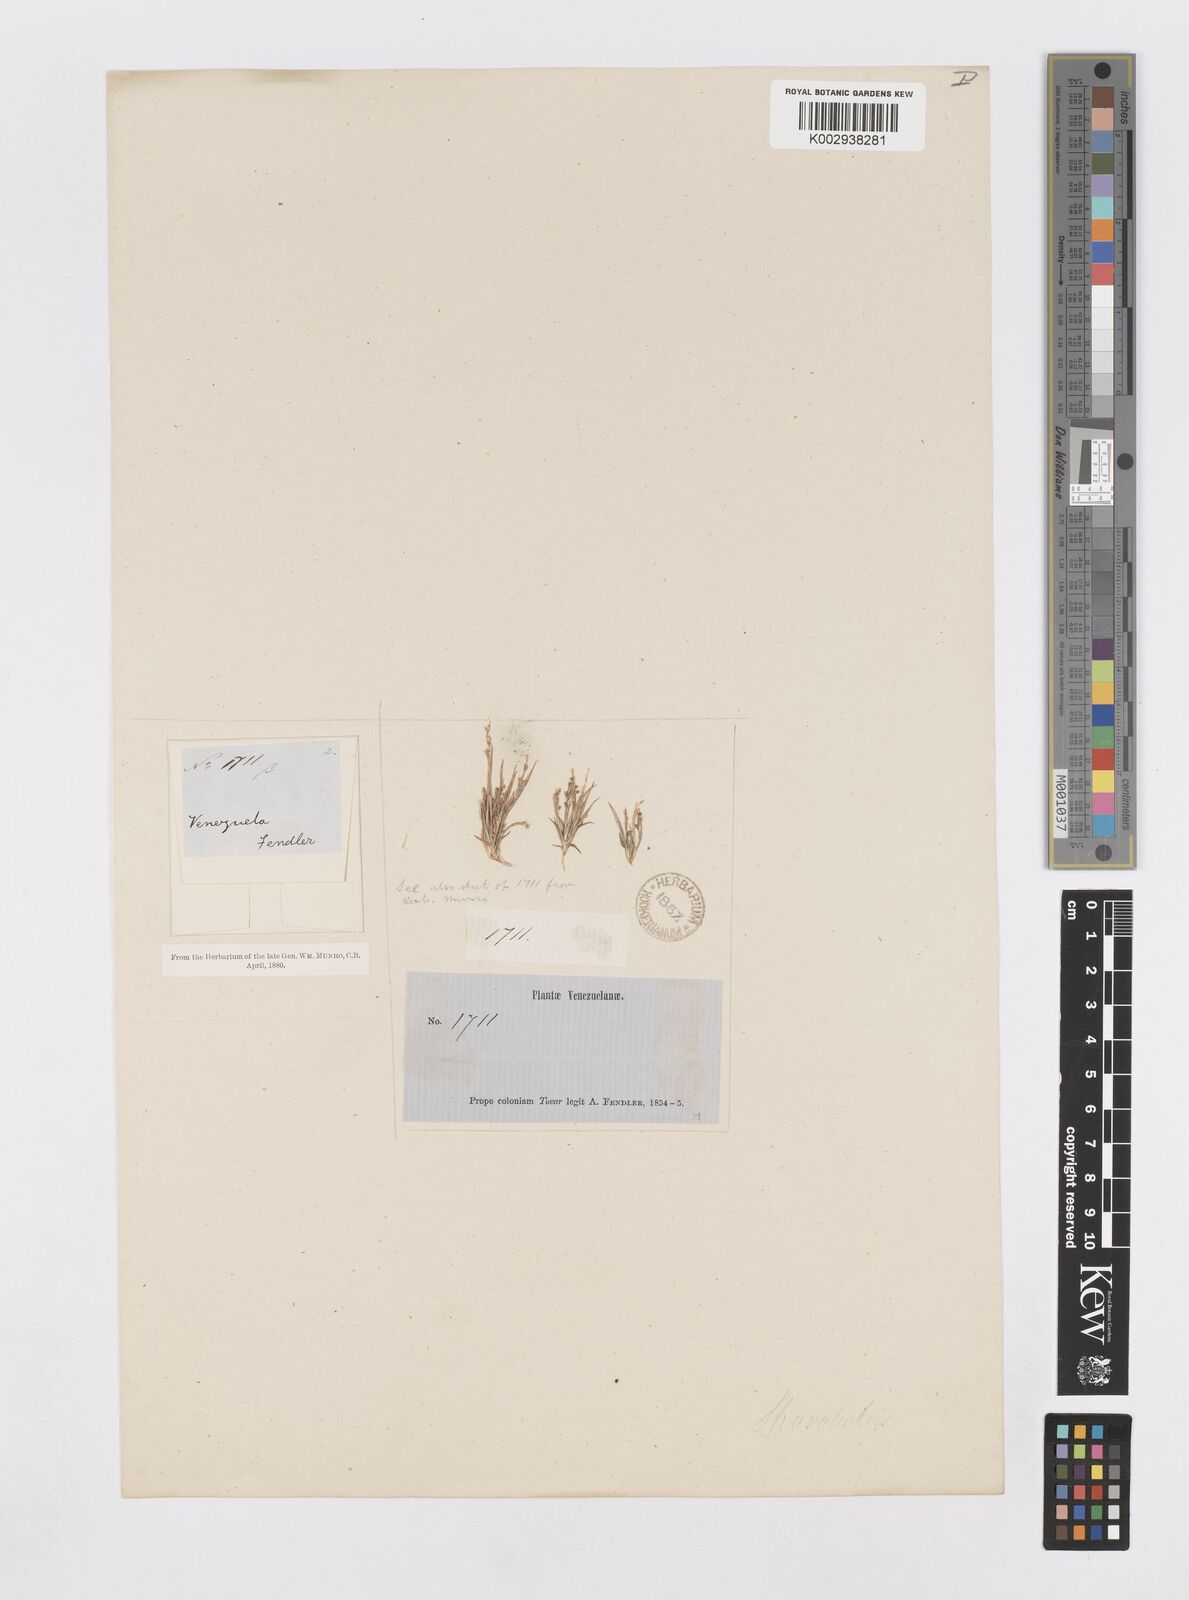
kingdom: Plantae
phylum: Tracheophyta
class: Liliopsida
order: Poales
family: Poaceae
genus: Sporobolus
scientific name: Sporobolus pilifer
